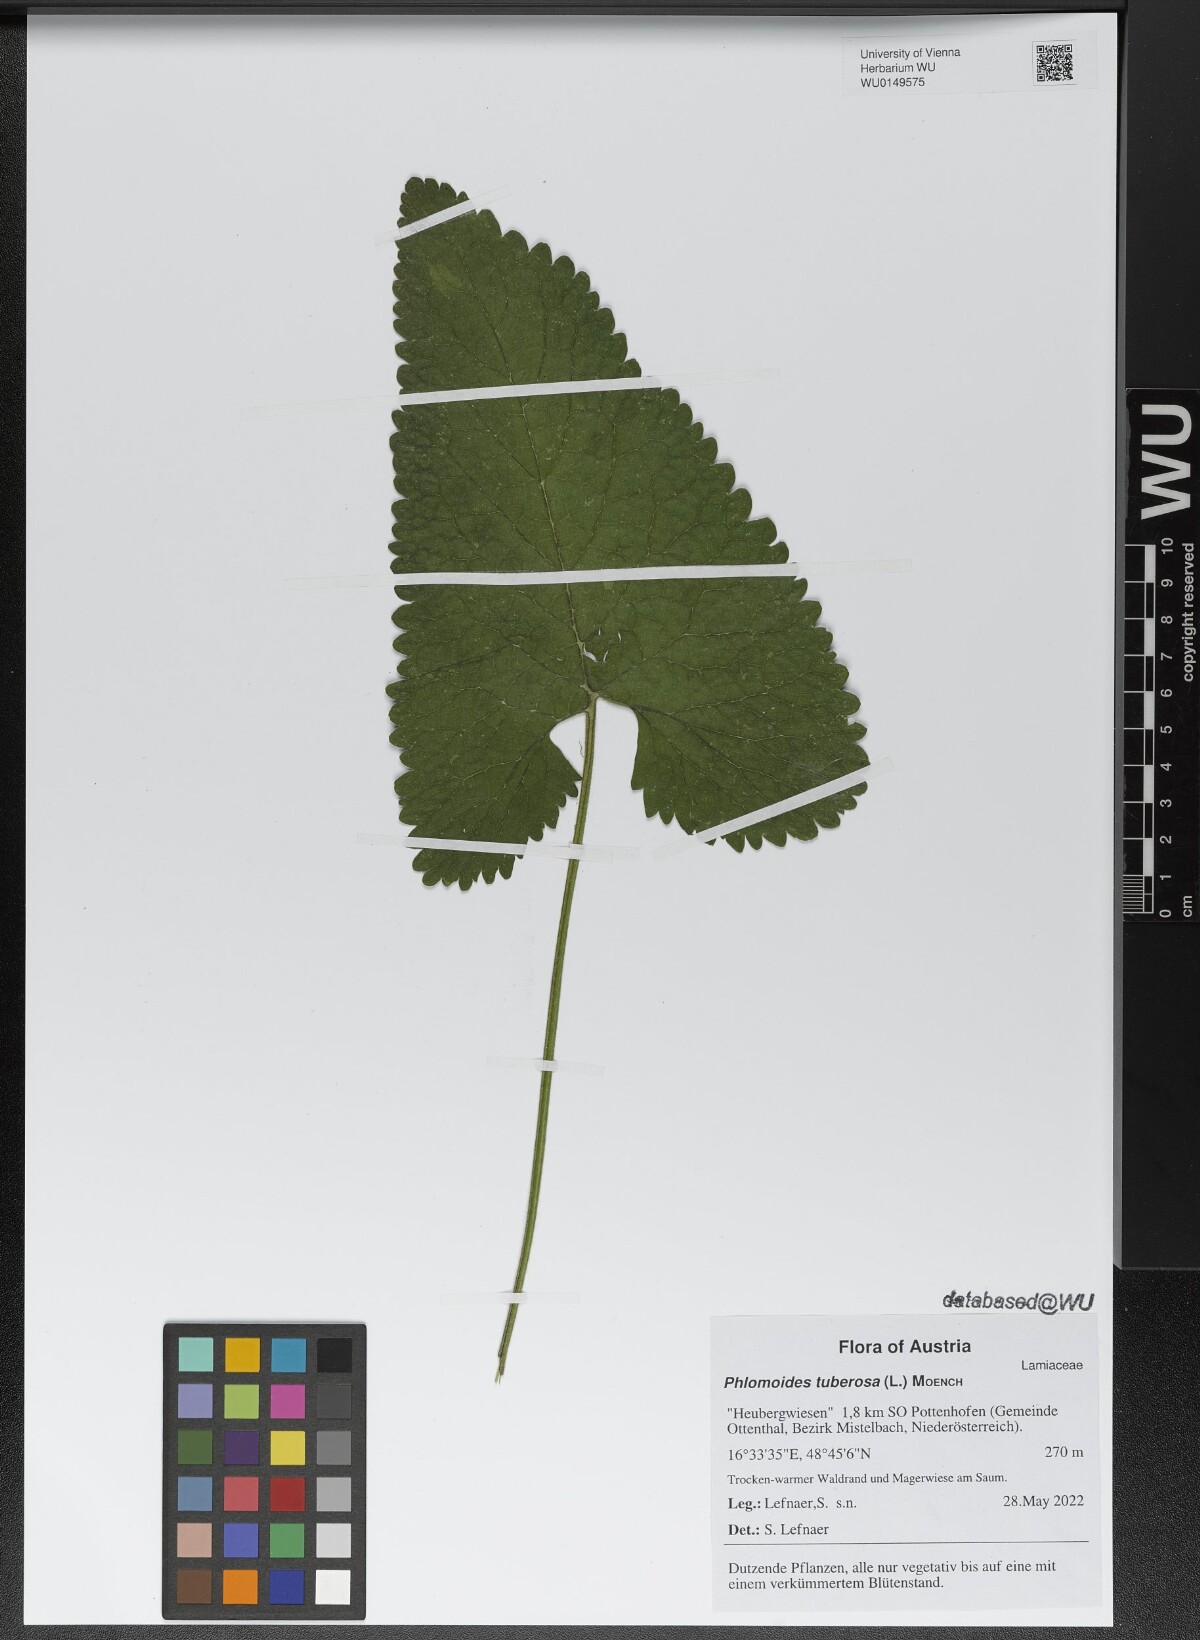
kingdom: Plantae
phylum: Tracheophyta
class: Magnoliopsida
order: Lamiales
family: Lamiaceae
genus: Phlomoides
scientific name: Phlomoides tuberosa
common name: Tuberous jerusalem sage
